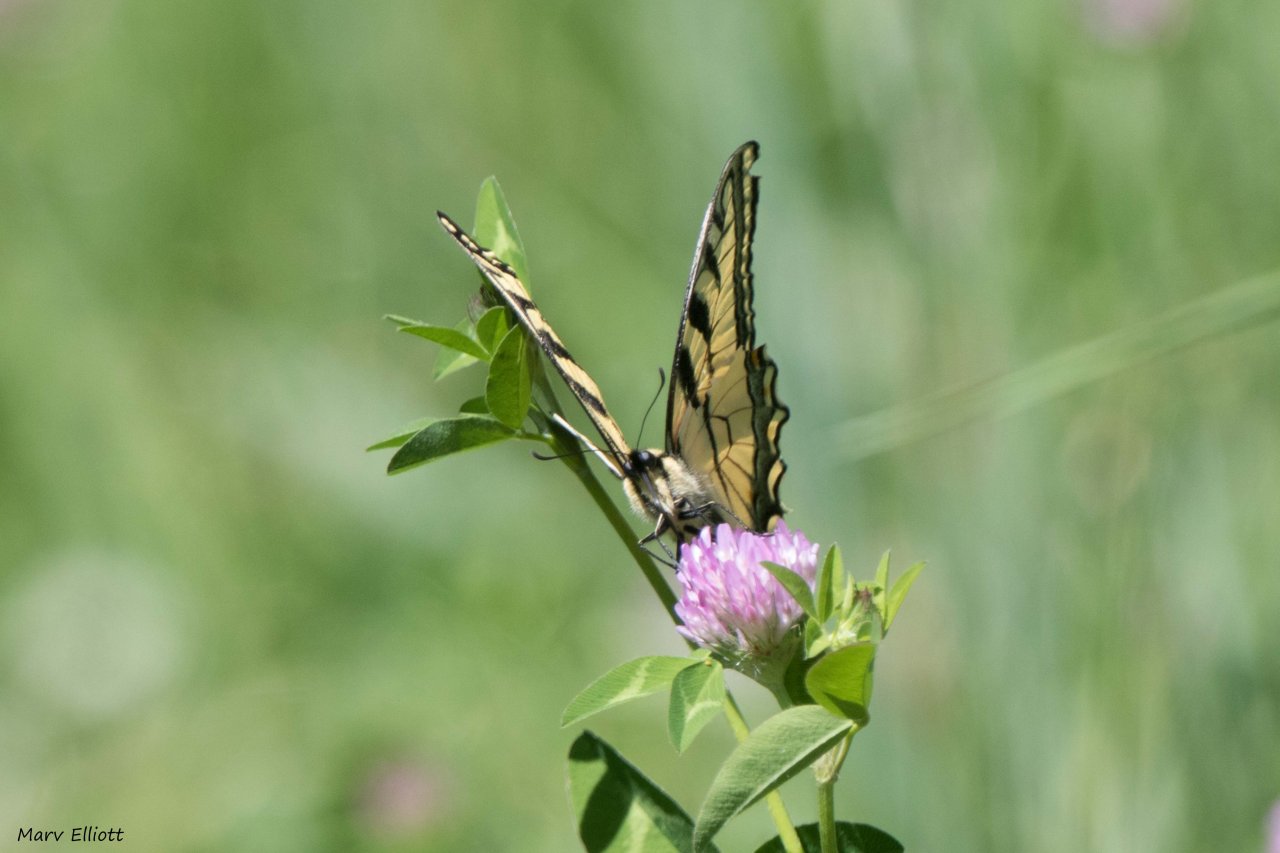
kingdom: Animalia
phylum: Arthropoda
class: Insecta
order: Lepidoptera
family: Papilionidae
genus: Pterourus
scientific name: Pterourus
